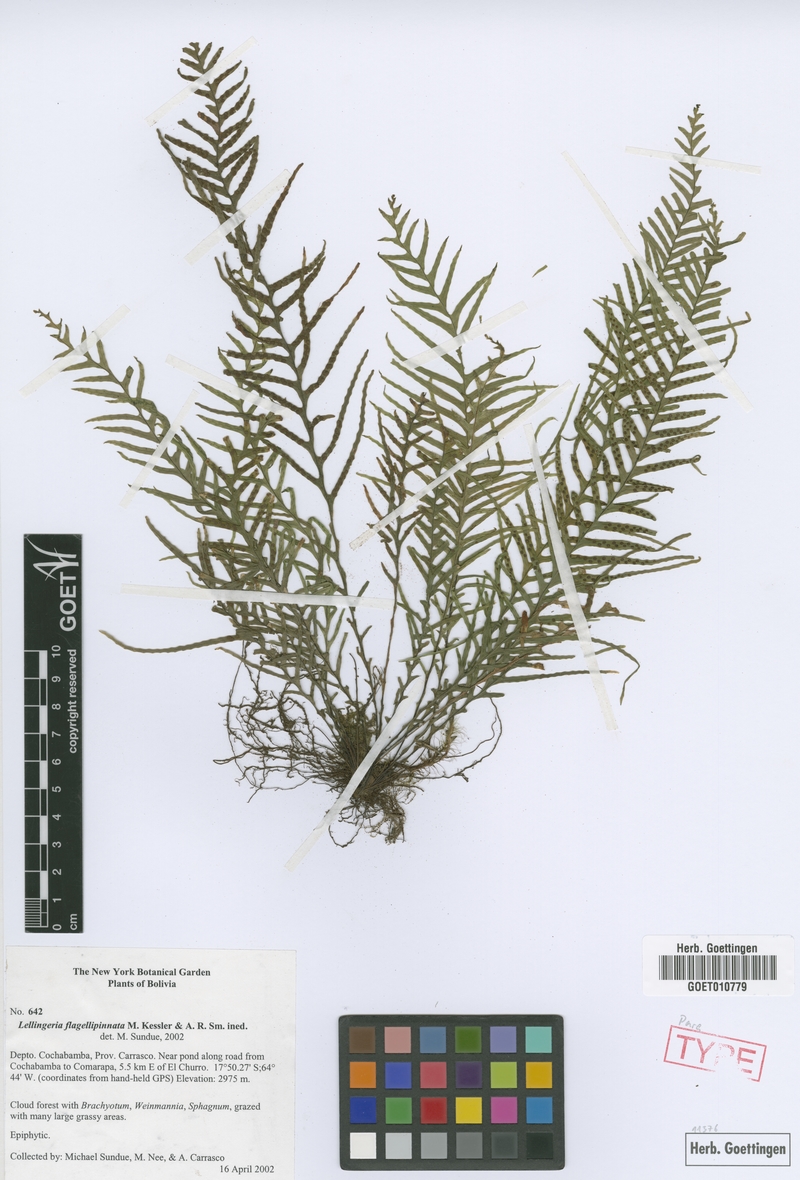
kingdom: Plantae
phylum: Tracheophyta
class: Polypodiopsida
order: Polypodiales
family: Polypodiaceae
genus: Lellingeria
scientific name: Lellingeria flagellipinnata
